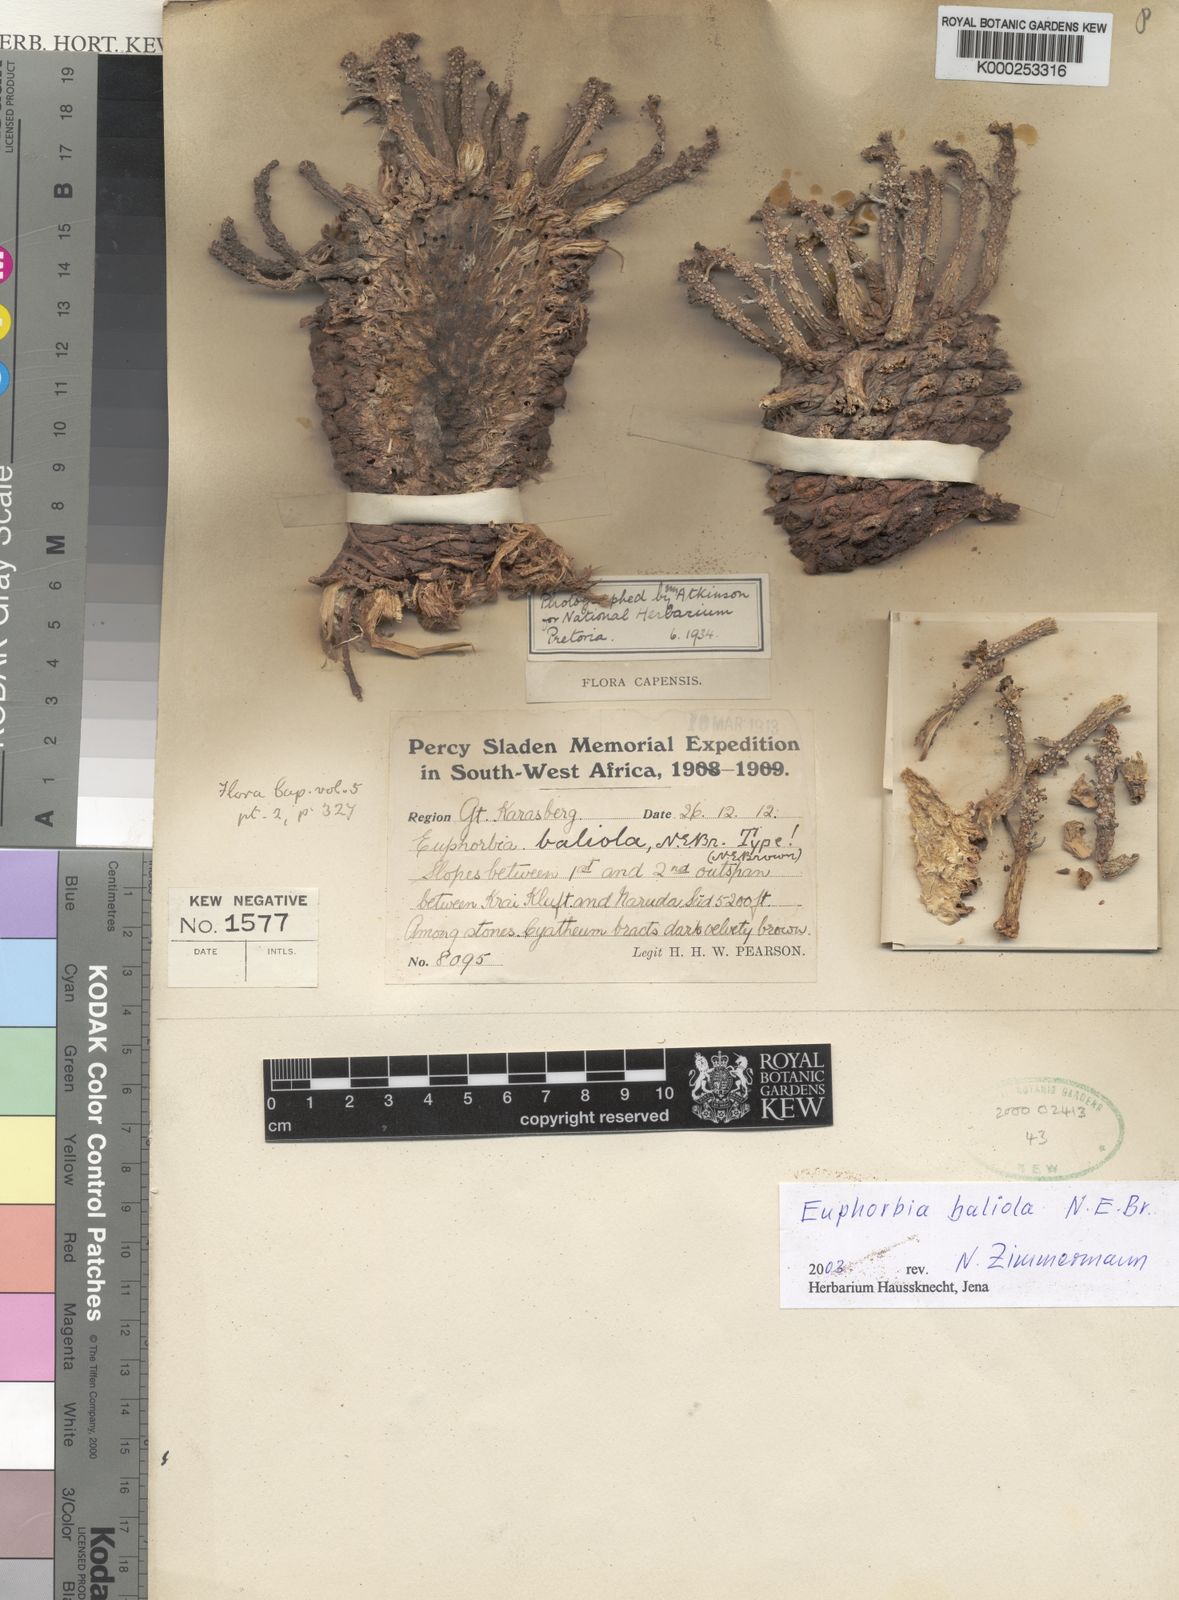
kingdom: Plantae
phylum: Tracheophyta
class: Magnoliopsida
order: Malpighiales
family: Euphorbiaceae
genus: Euphorbia
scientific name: Euphorbia baliola
